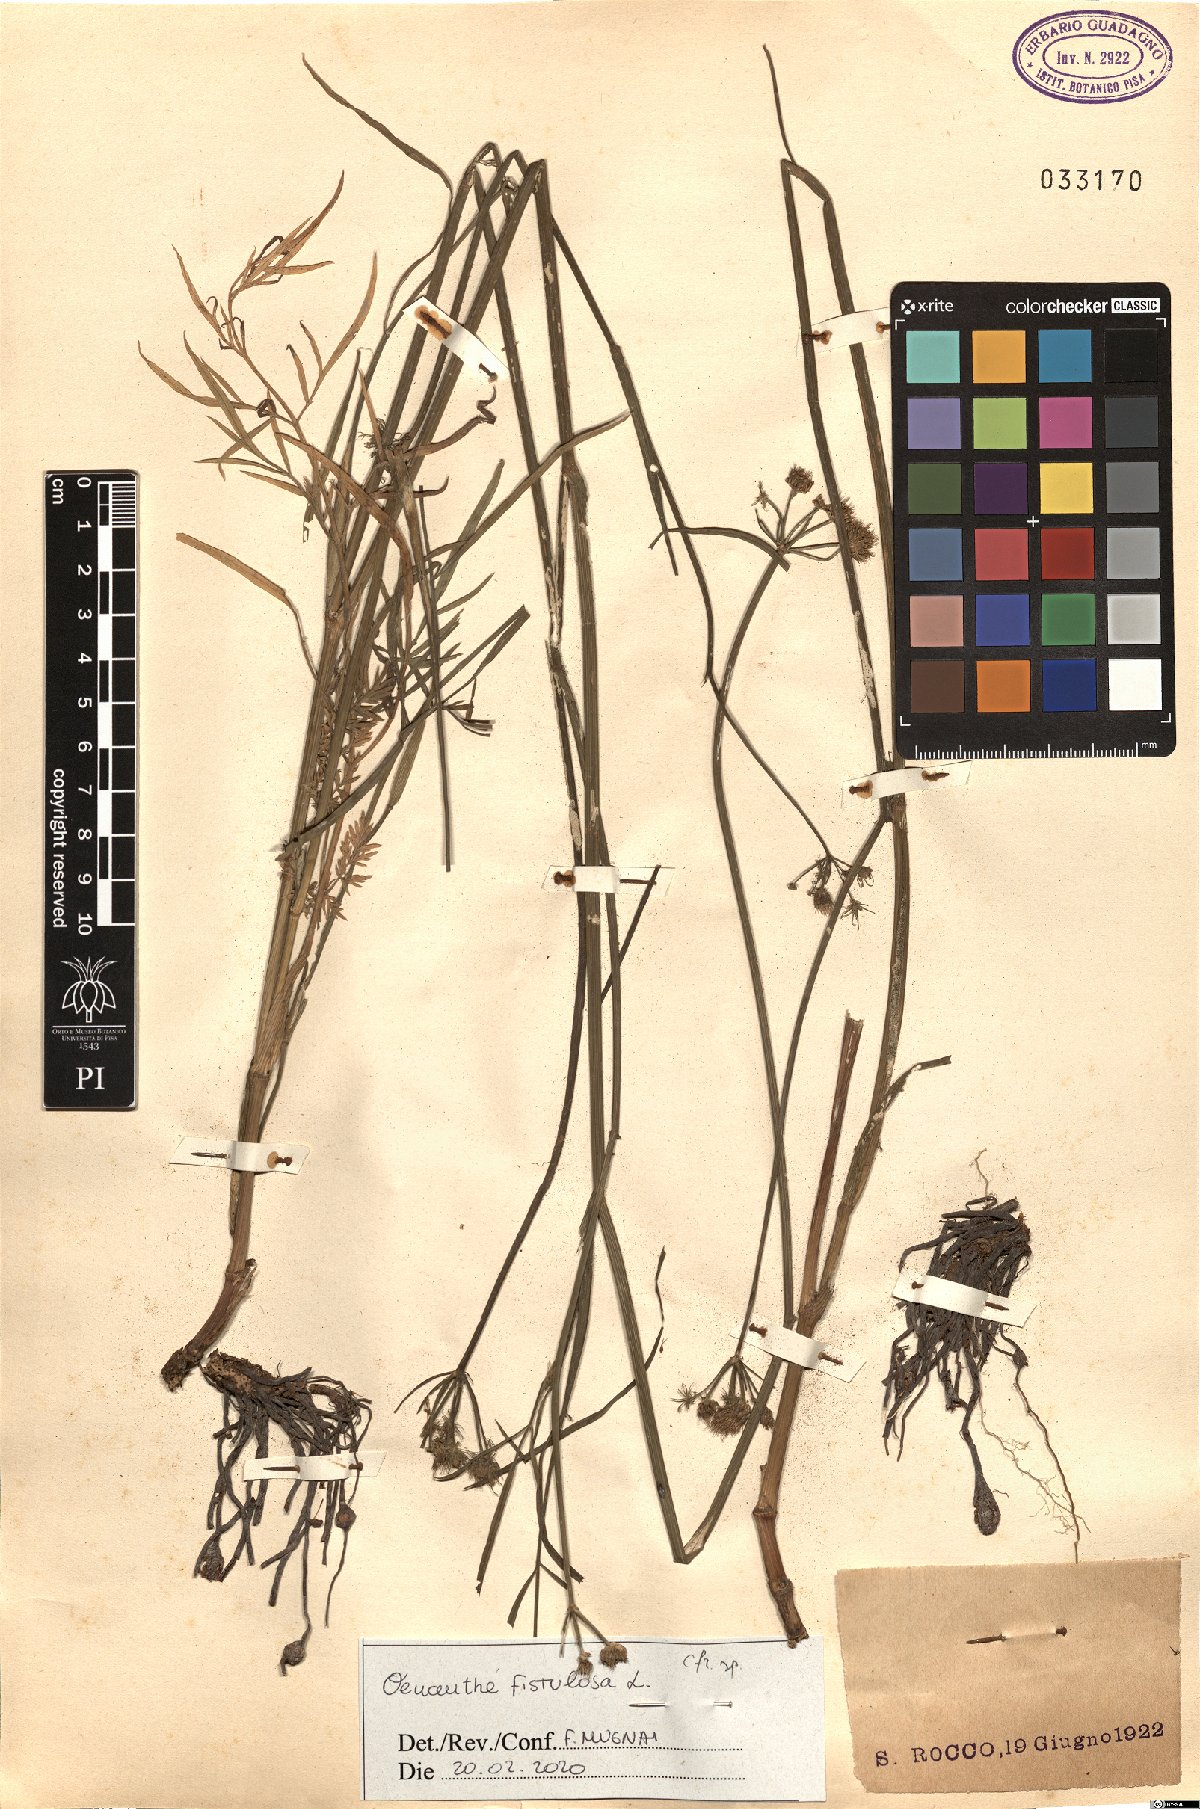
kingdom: Plantae
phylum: Tracheophyta
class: Magnoliopsida
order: Apiales
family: Apiaceae
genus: Oenanthe
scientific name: Oenanthe fistulosa
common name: Tubular water-dropwort
